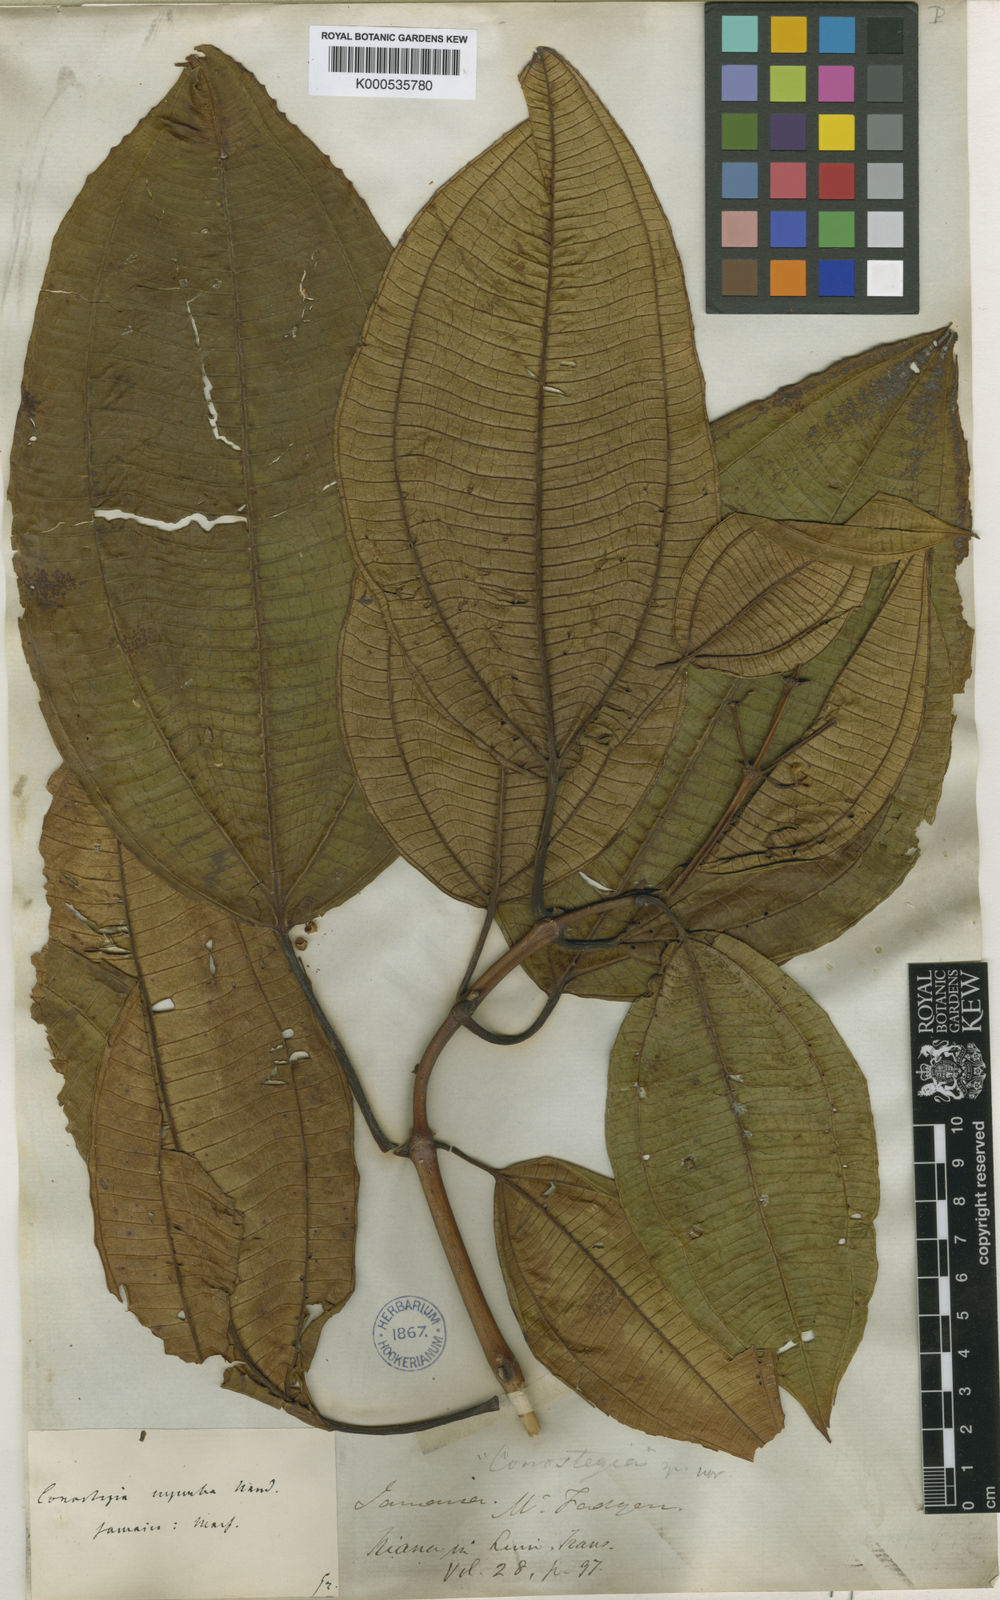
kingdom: Plantae
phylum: Tracheophyta
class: Magnoliopsida
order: Myrtales
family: Melastomataceae
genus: Miconia
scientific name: Miconia baillonii
